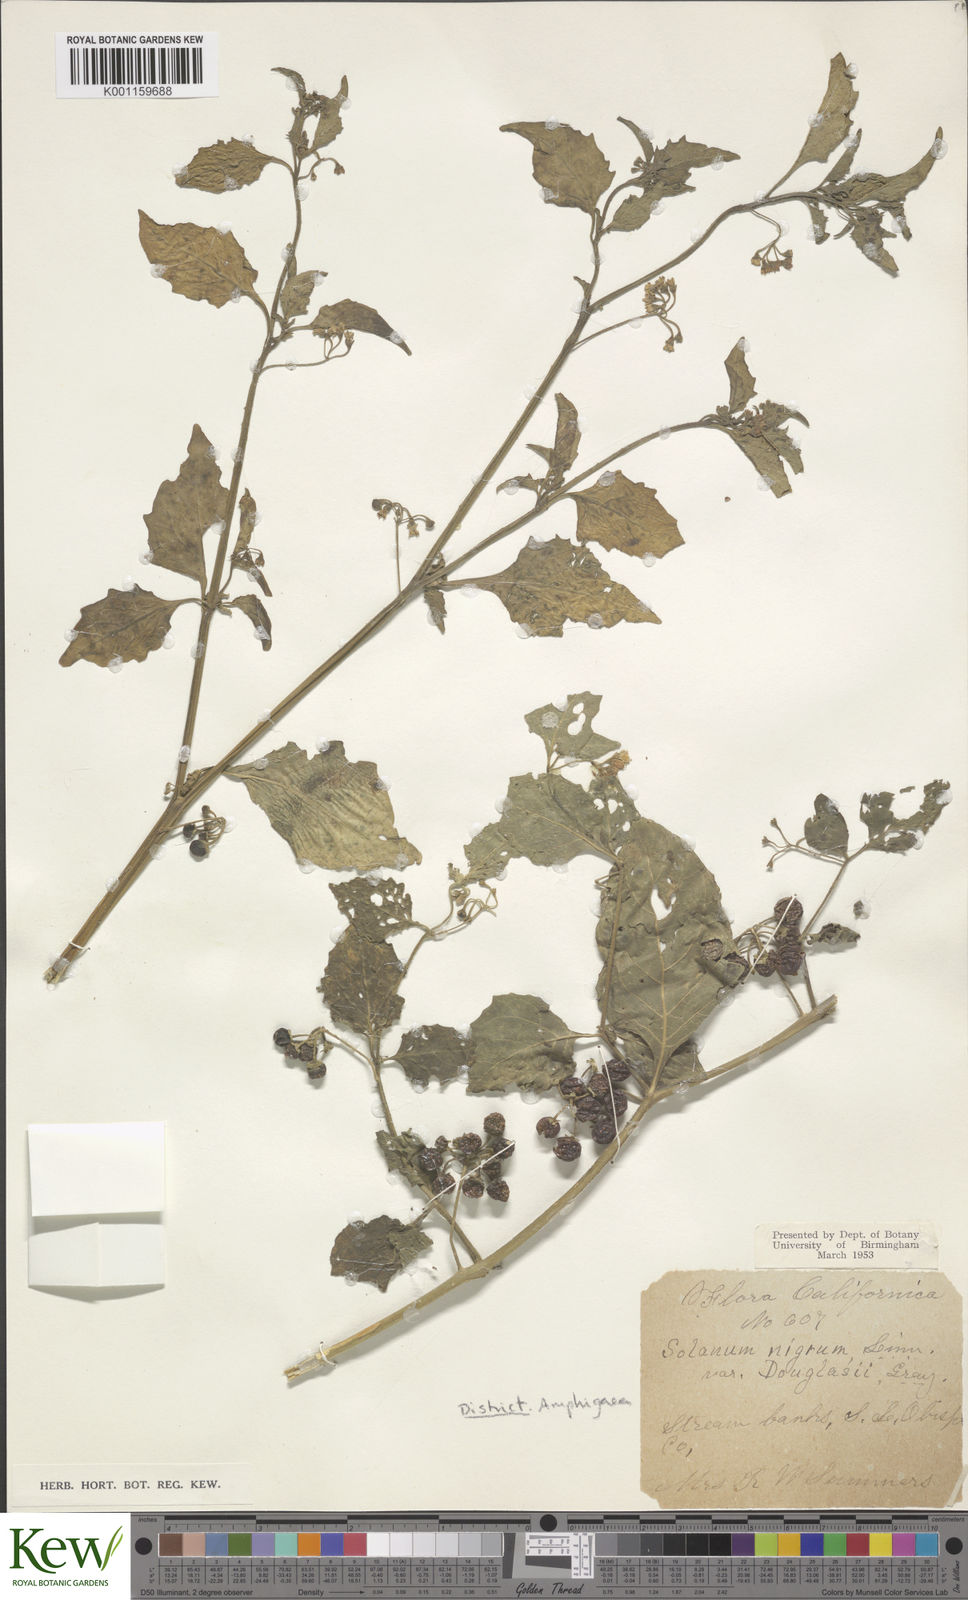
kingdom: Plantae
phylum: Tracheophyta
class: Magnoliopsida
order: Solanales
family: Solanaceae
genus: Solanum
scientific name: Solanum nigrum
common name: Black nightshade
